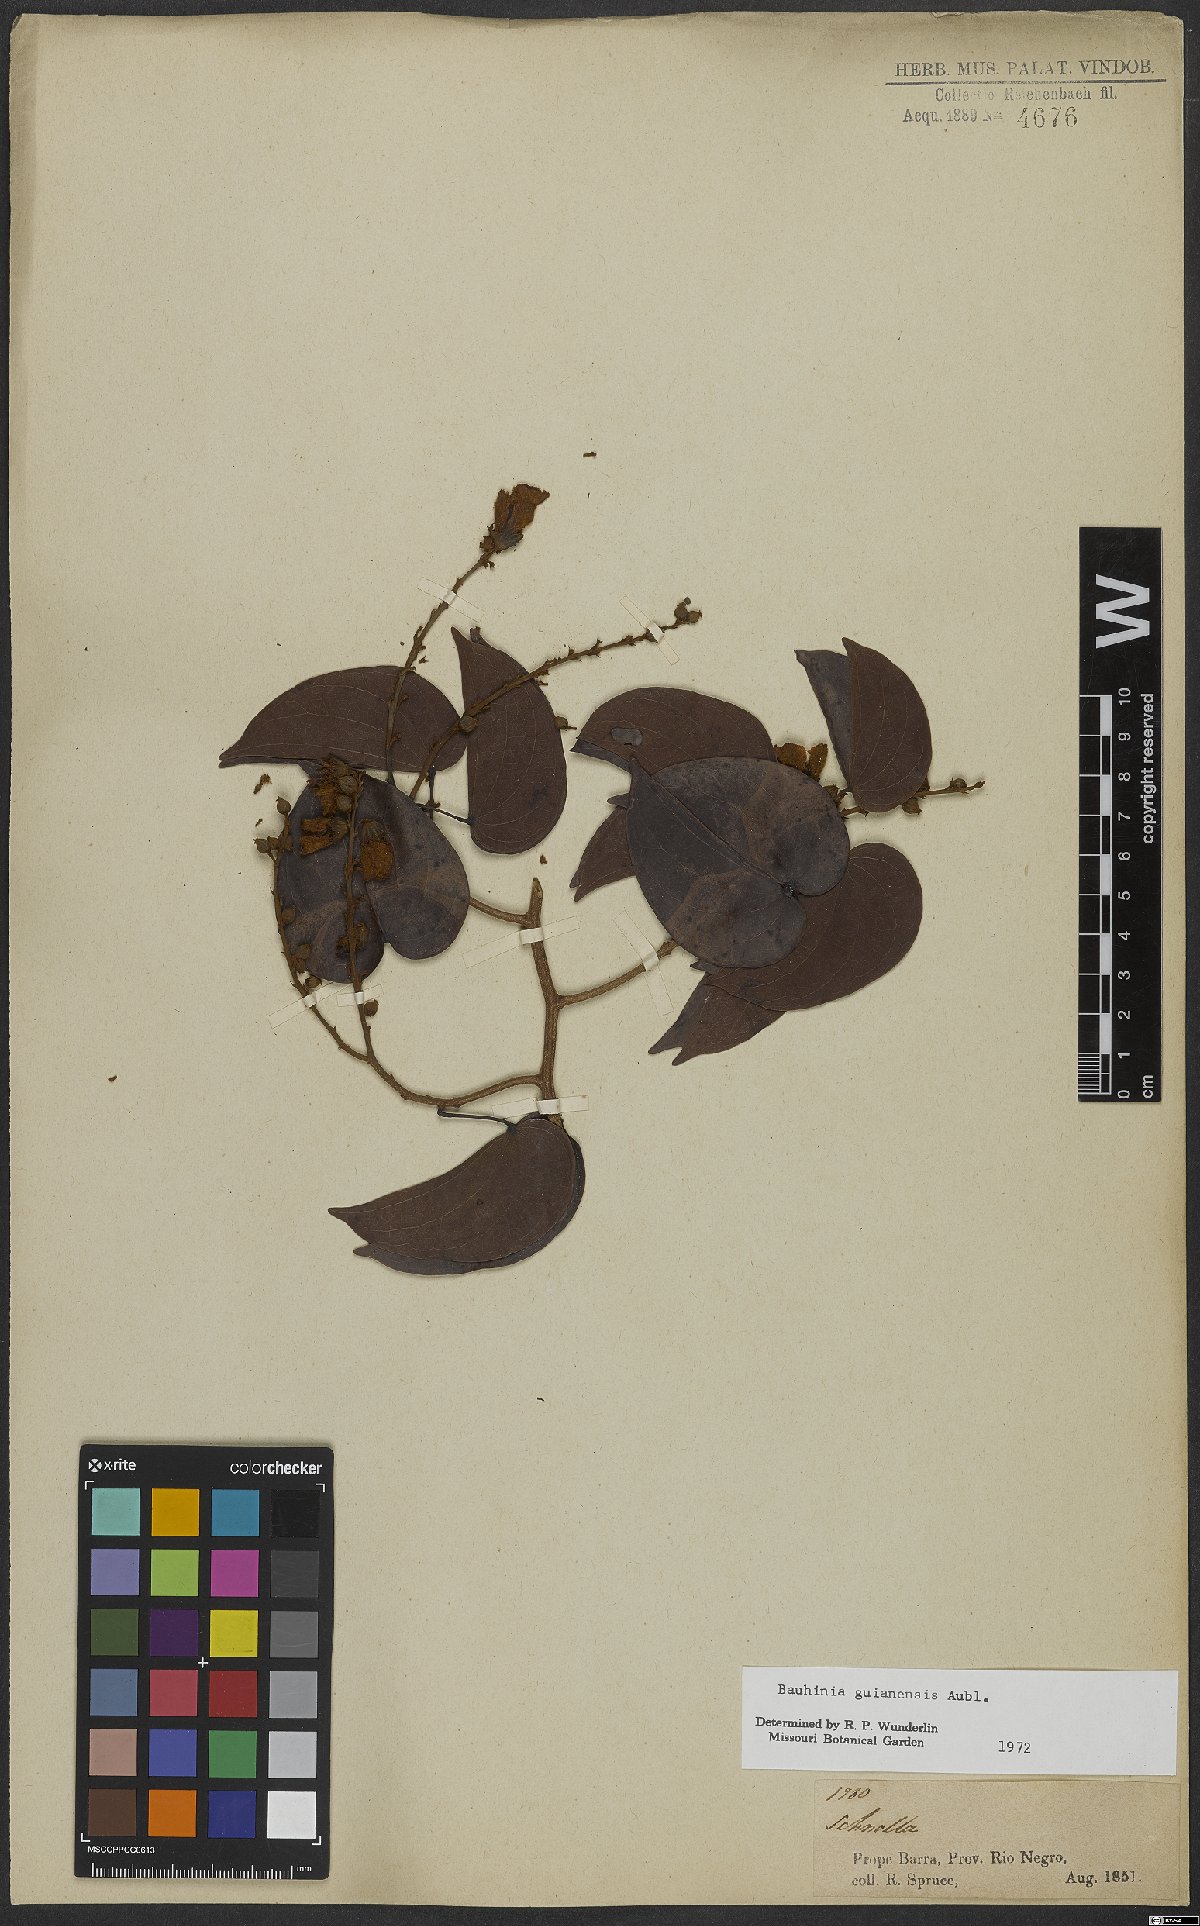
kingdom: Plantae
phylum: Tracheophyta
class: Magnoliopsida
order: Fabales
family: Fabaceae
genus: Schnella
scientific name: Schnella guianensis
